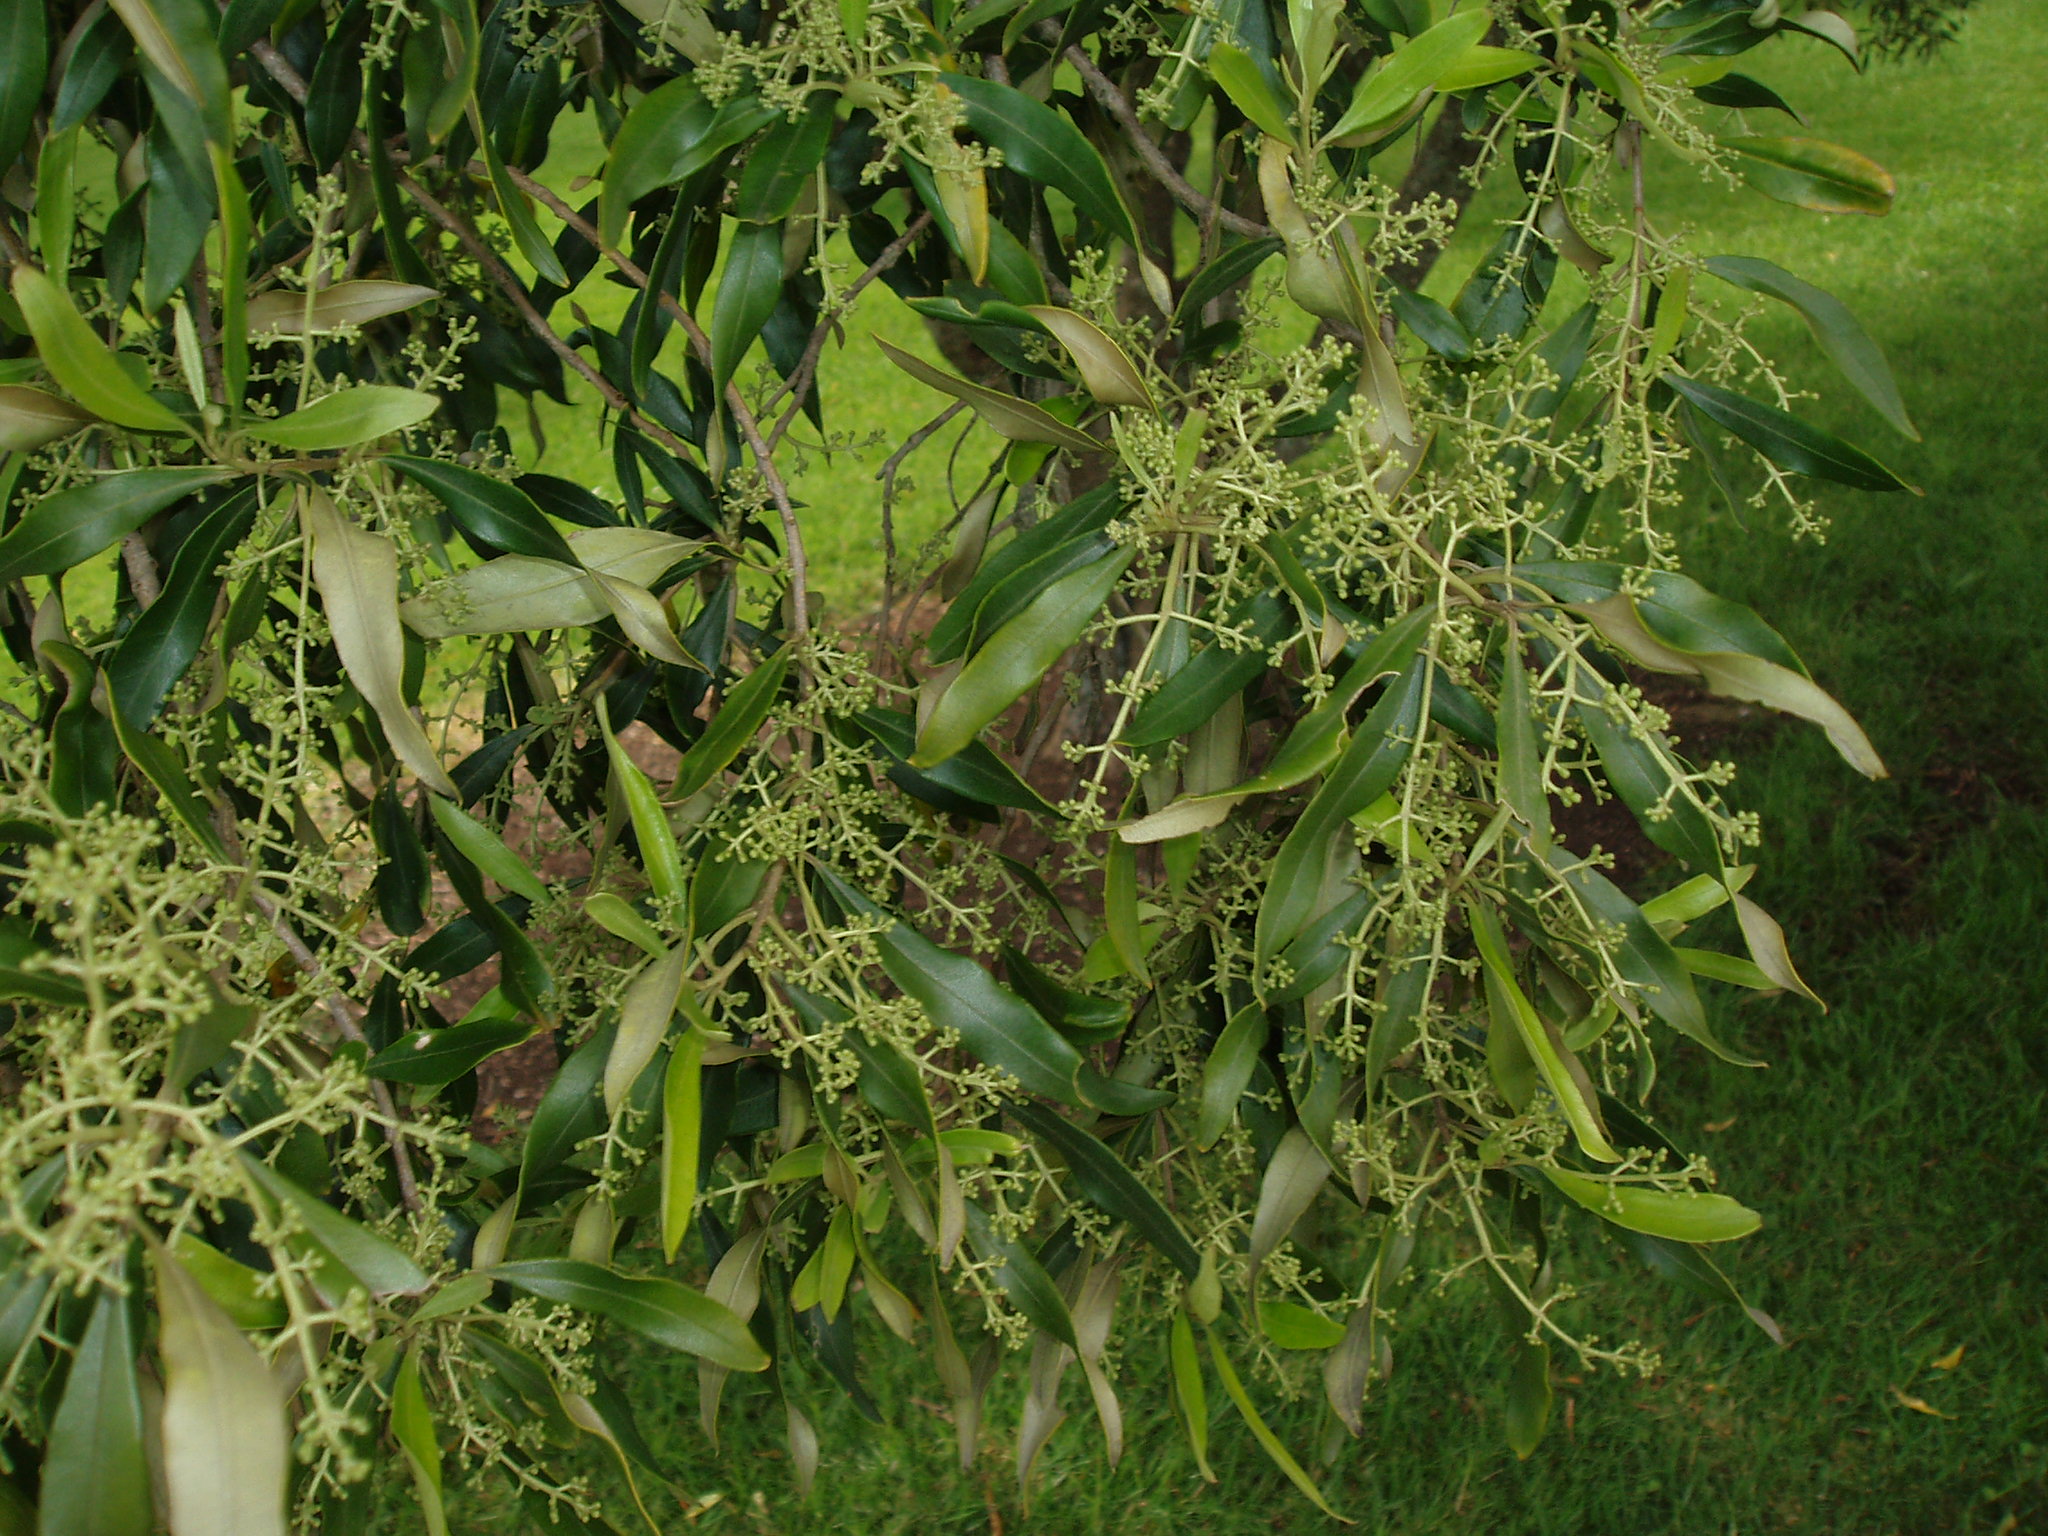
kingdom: Plantae
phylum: Tracheophyta
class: Magnoliopsida
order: Lamiales
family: Oleaceae
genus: Olea
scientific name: Olea europaea
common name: Olive
